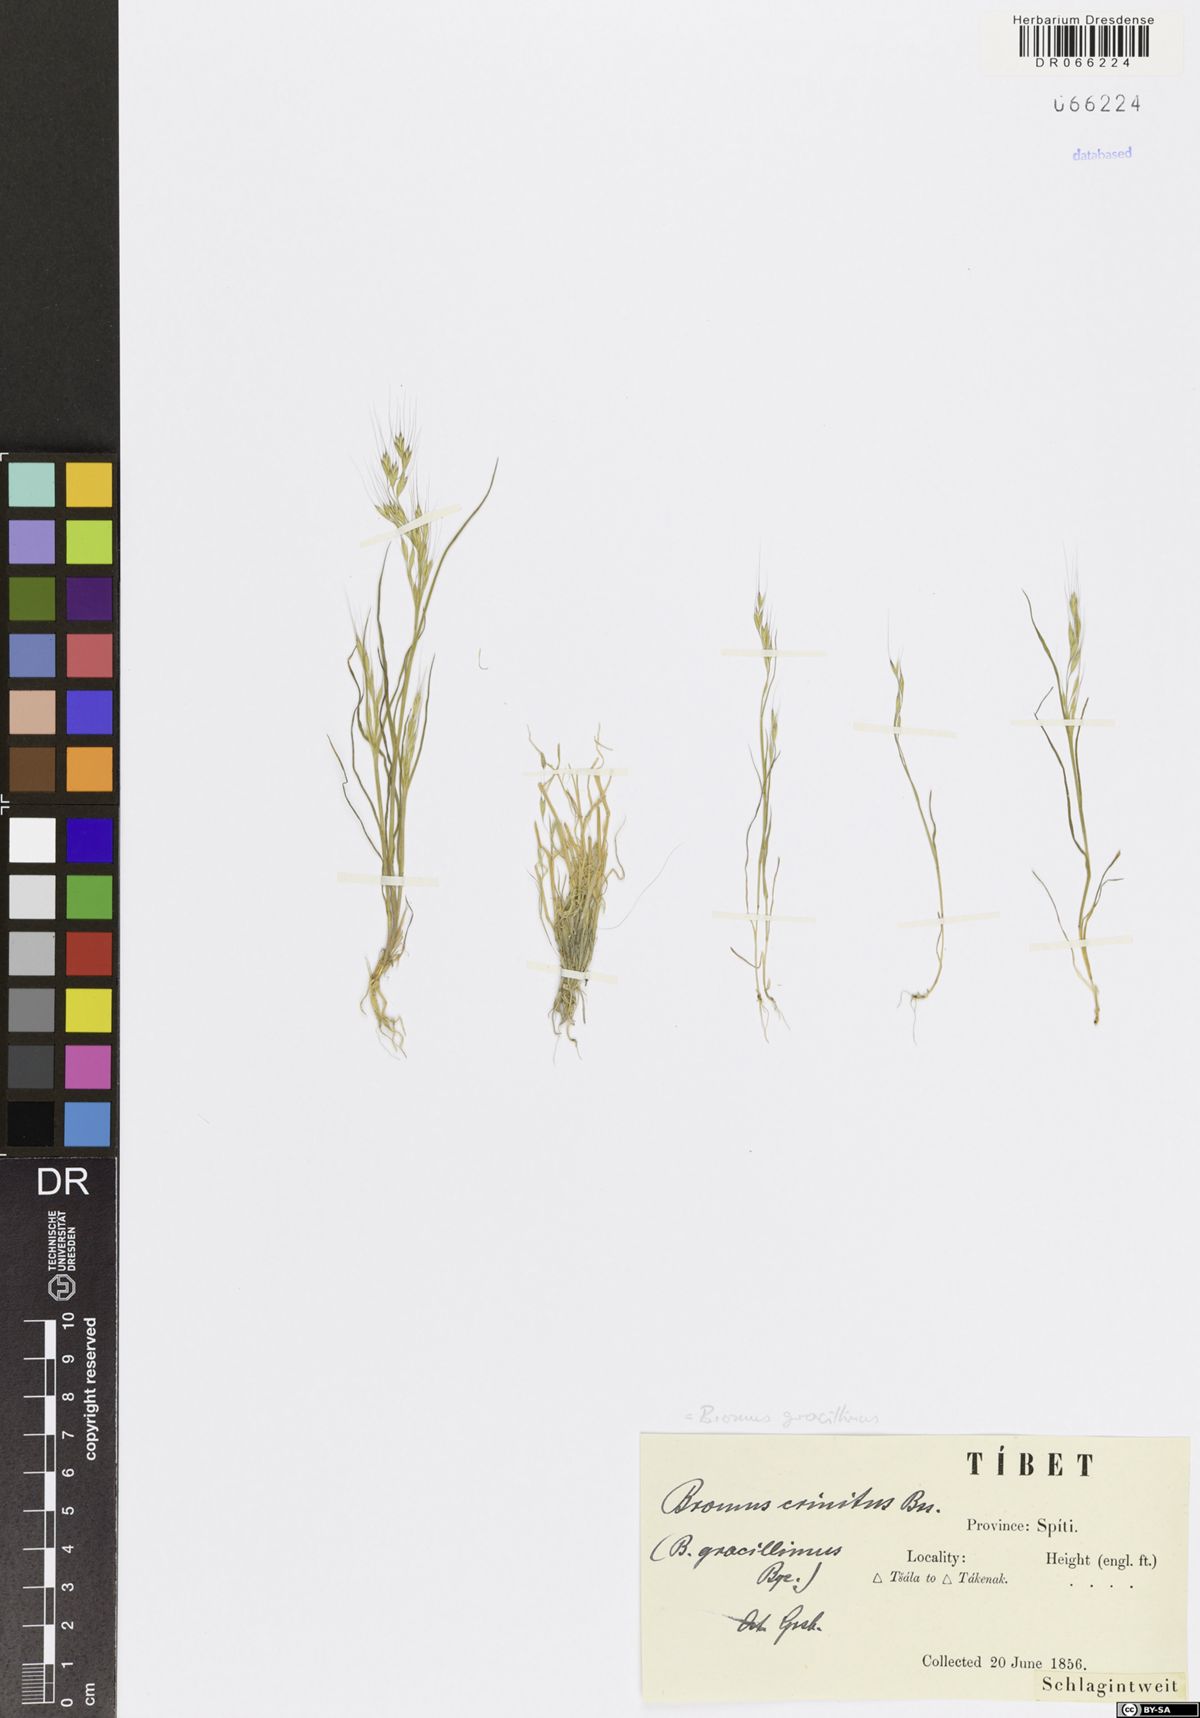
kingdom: Plantae
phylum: Tracheophyta
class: Liliopsida
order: Poales
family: Poaceae
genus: Bromus
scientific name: Bromus gracillimus
